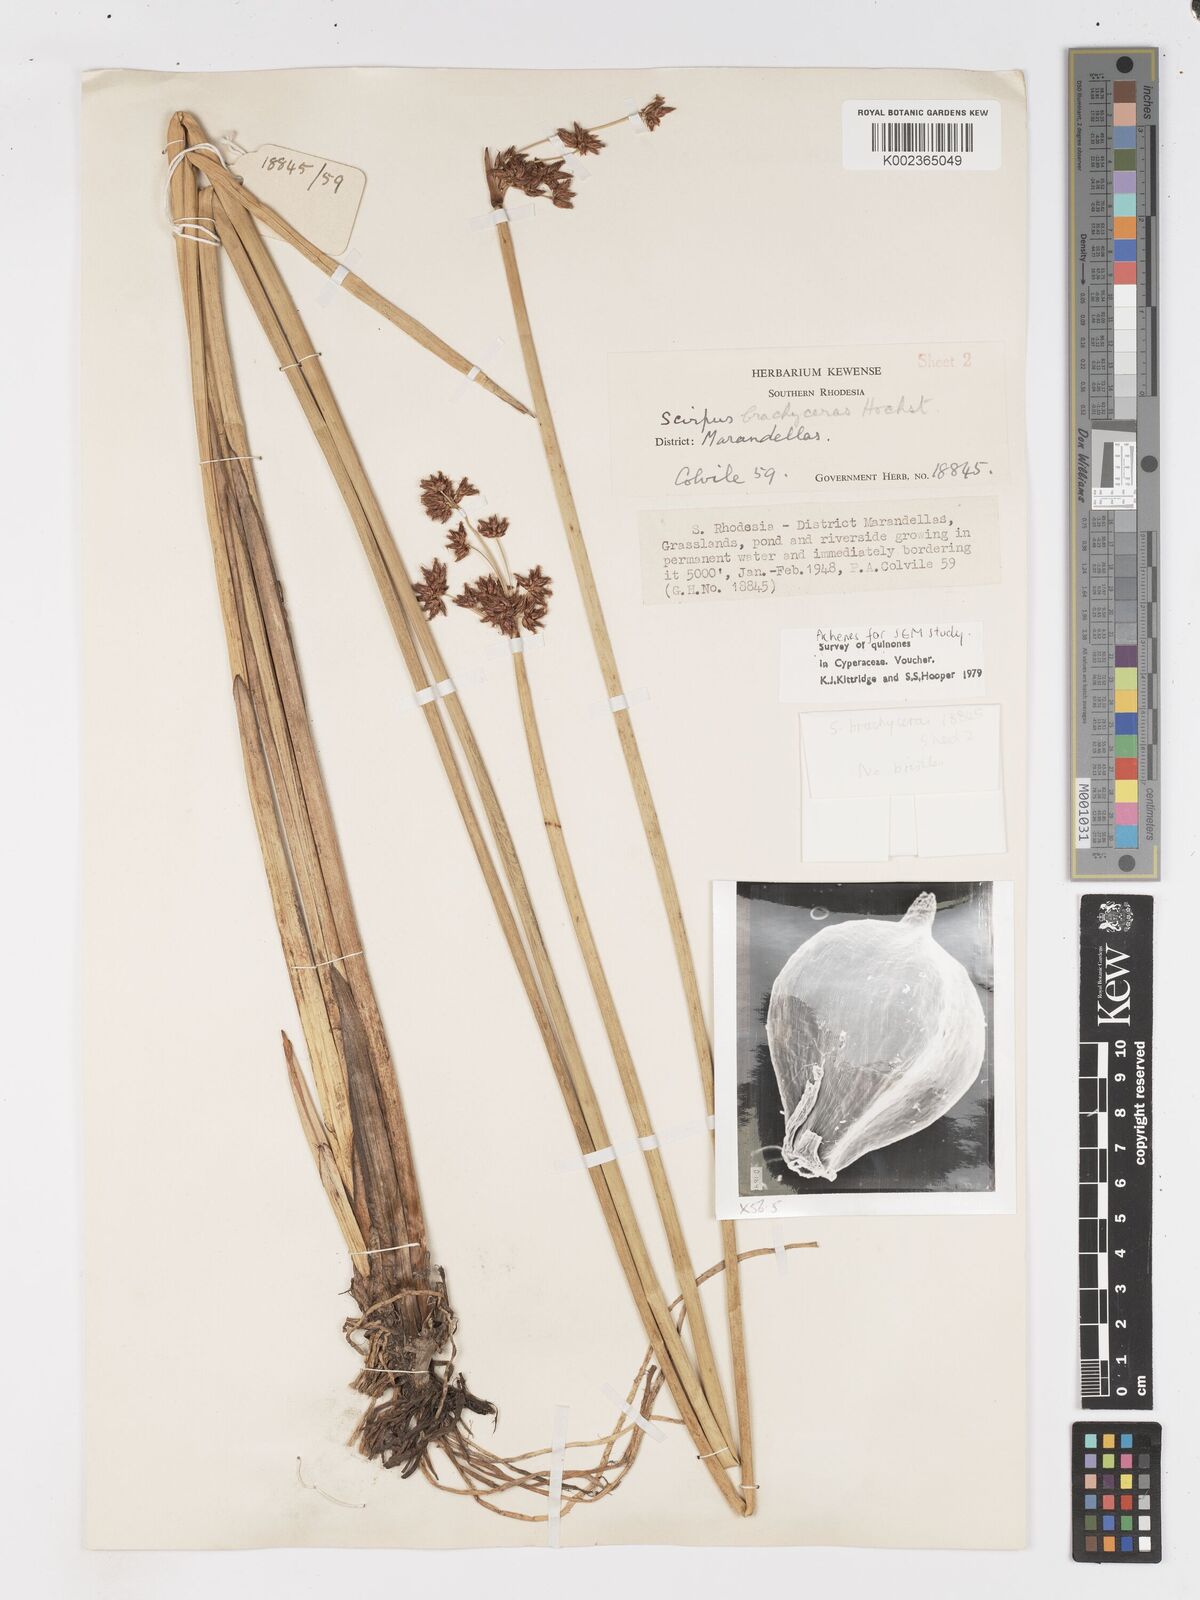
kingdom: Plantae
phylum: Tracheophyta
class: Liliopsida
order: Poales
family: Cyperaceae
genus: Schoenoplectus
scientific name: Schoenoplectus
